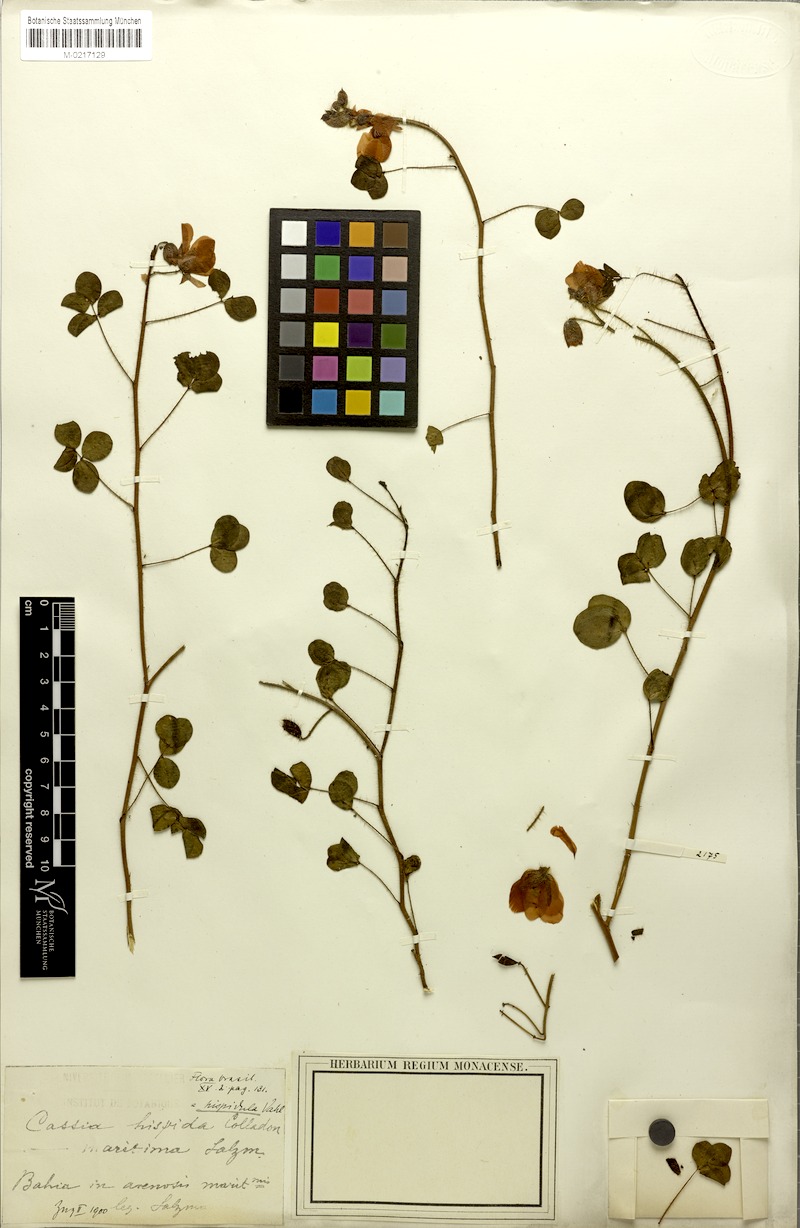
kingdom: Plantae
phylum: Tracheophyta
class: Magnoliopsida
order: Fabales
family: Fabaceae
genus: Chamaecrista
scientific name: Chamaecrista hispidula
